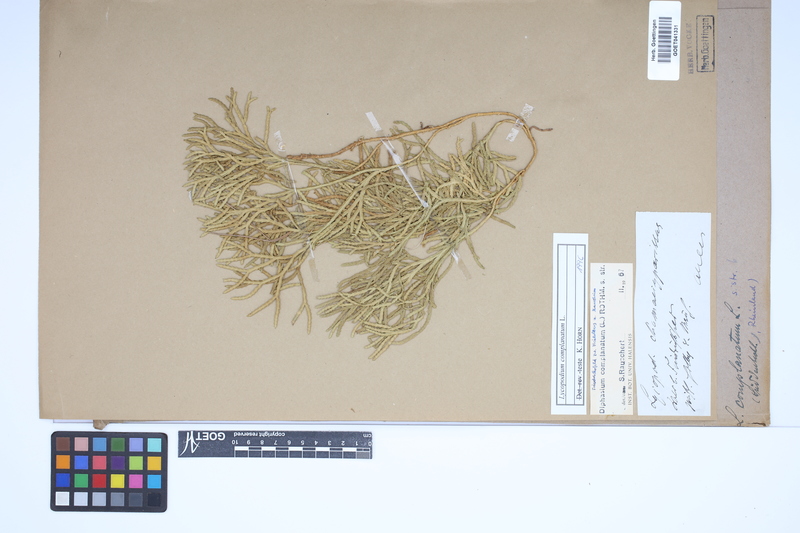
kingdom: Plantae
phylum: Tracheophyta
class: Lycopodiopsida
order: Lycopodiales
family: Lycopodiaceae
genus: Diphasiastrum
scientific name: Diphasiastrum complanatum
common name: Northern running-pine
